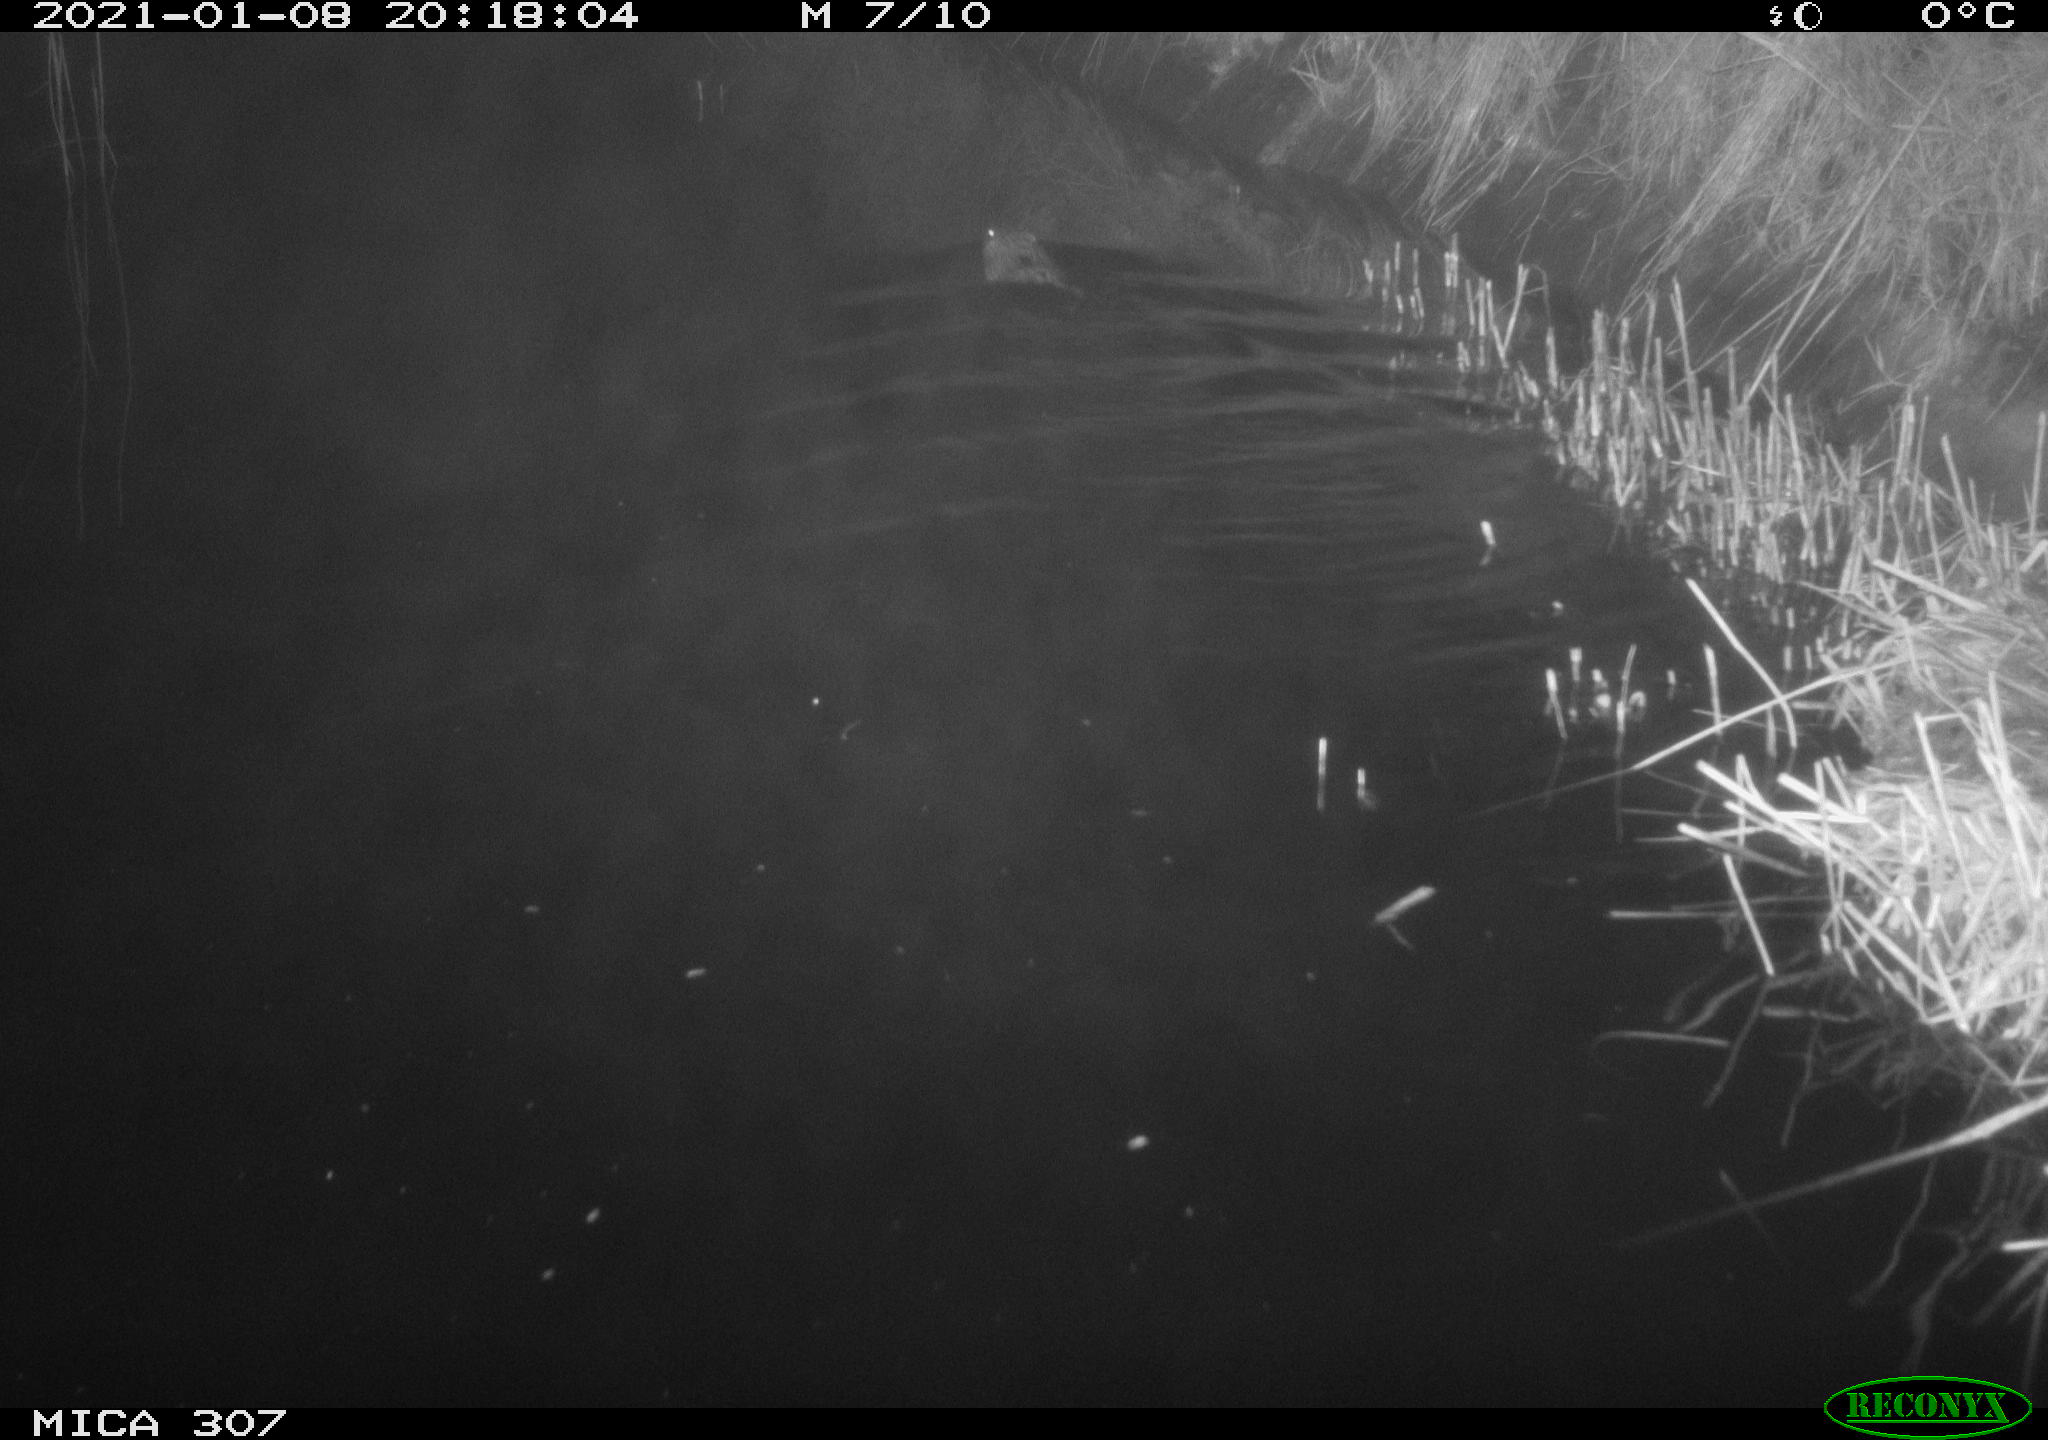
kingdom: Animalia
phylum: Chordata
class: Mammalia
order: Rodentia
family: Cricetidae
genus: Ondatra
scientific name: Ondatra zibethicus
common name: Muskrat
